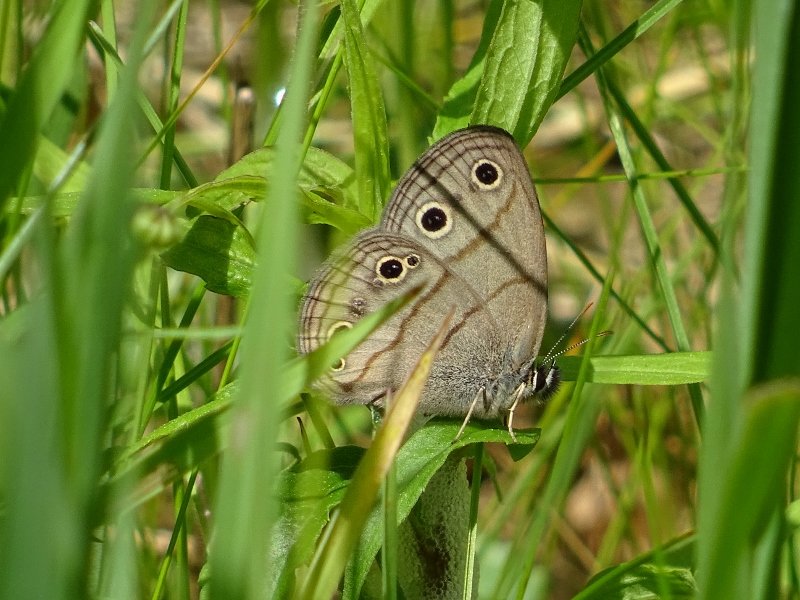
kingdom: Animalia
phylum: Arthropoda
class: Insecta
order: Lepidoptera
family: Nymphalidae
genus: Euptychia
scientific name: Euptychia cymela
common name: Little Wood Satyr
